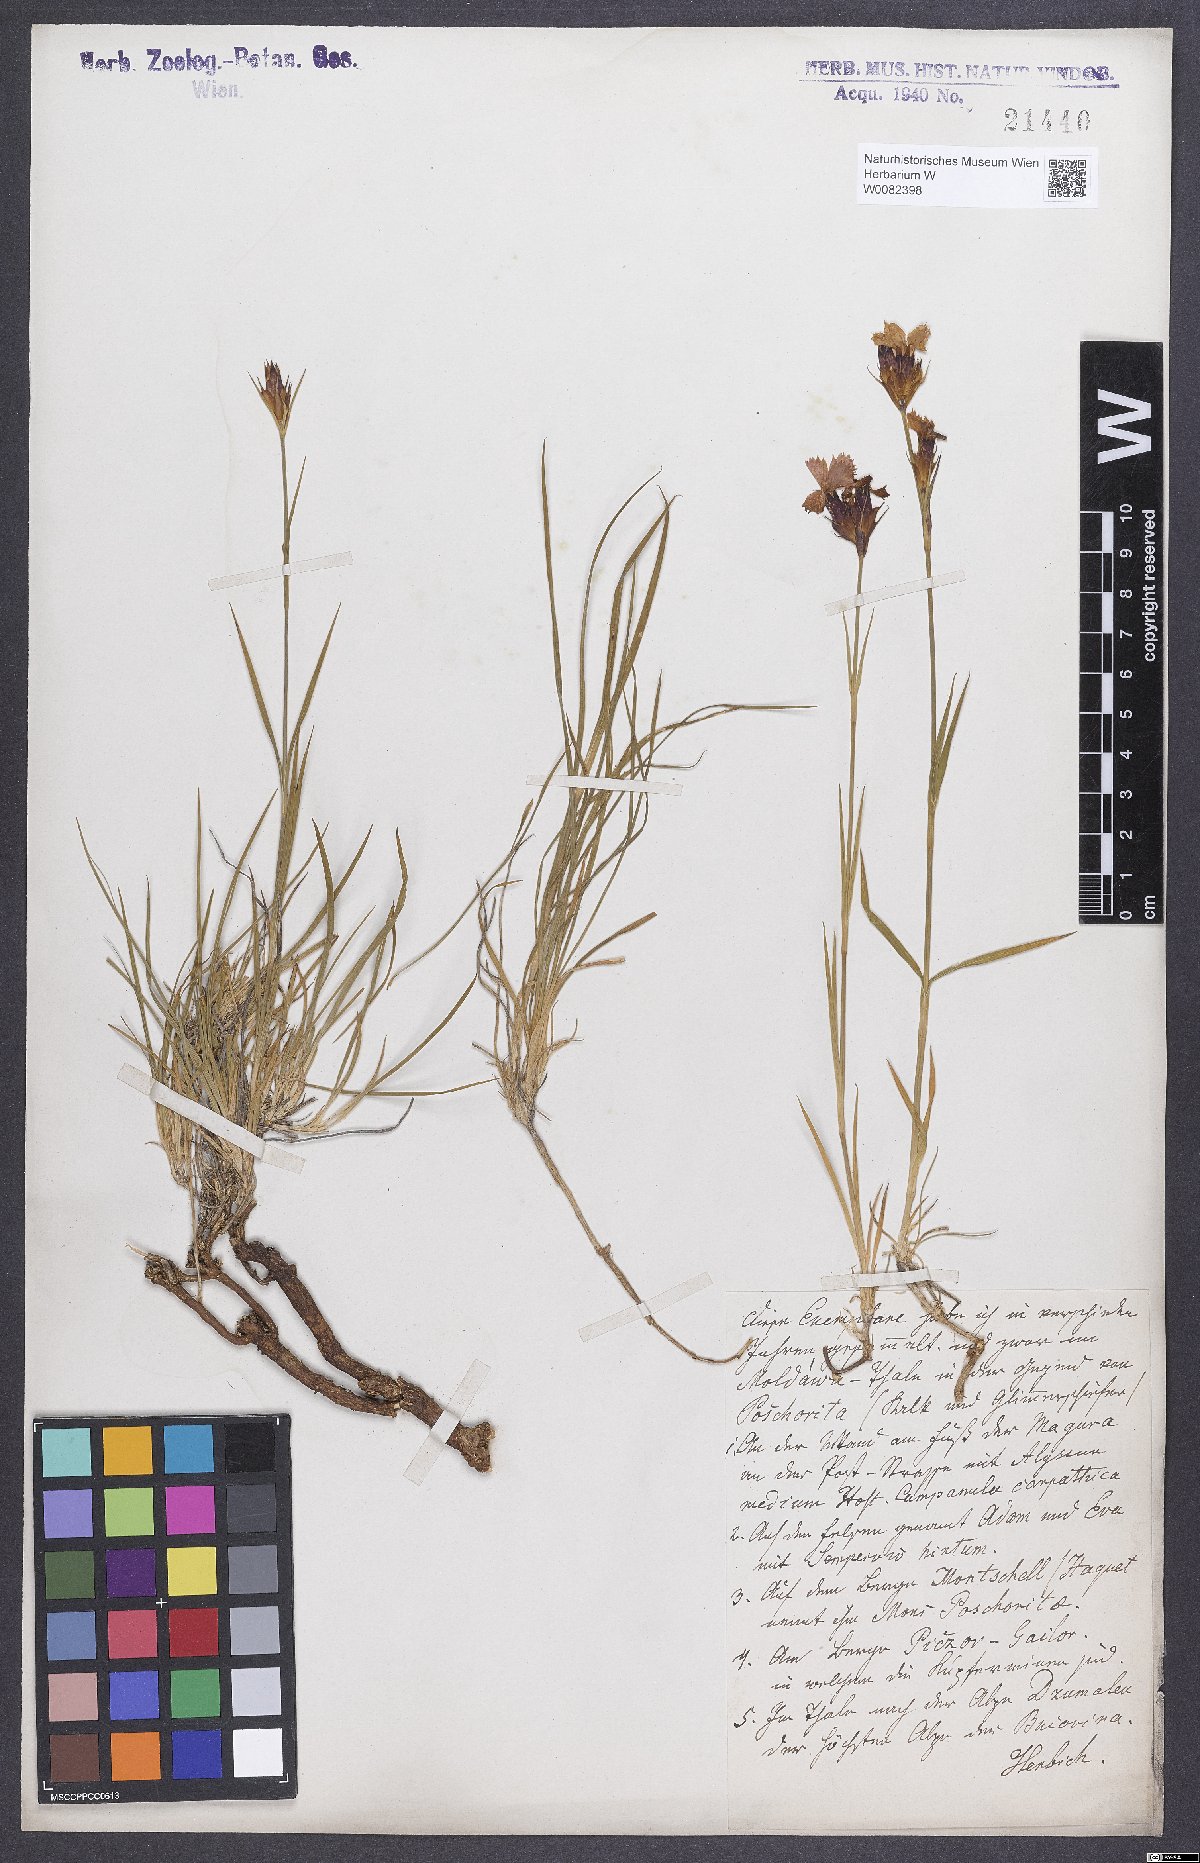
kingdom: Plantae
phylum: Tracheophyta
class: Magnoliopsida
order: Caryophyllales
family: Caryophyllaceae
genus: Dianthus
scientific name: Dianthus carthusianorum
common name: Carthusian pink
